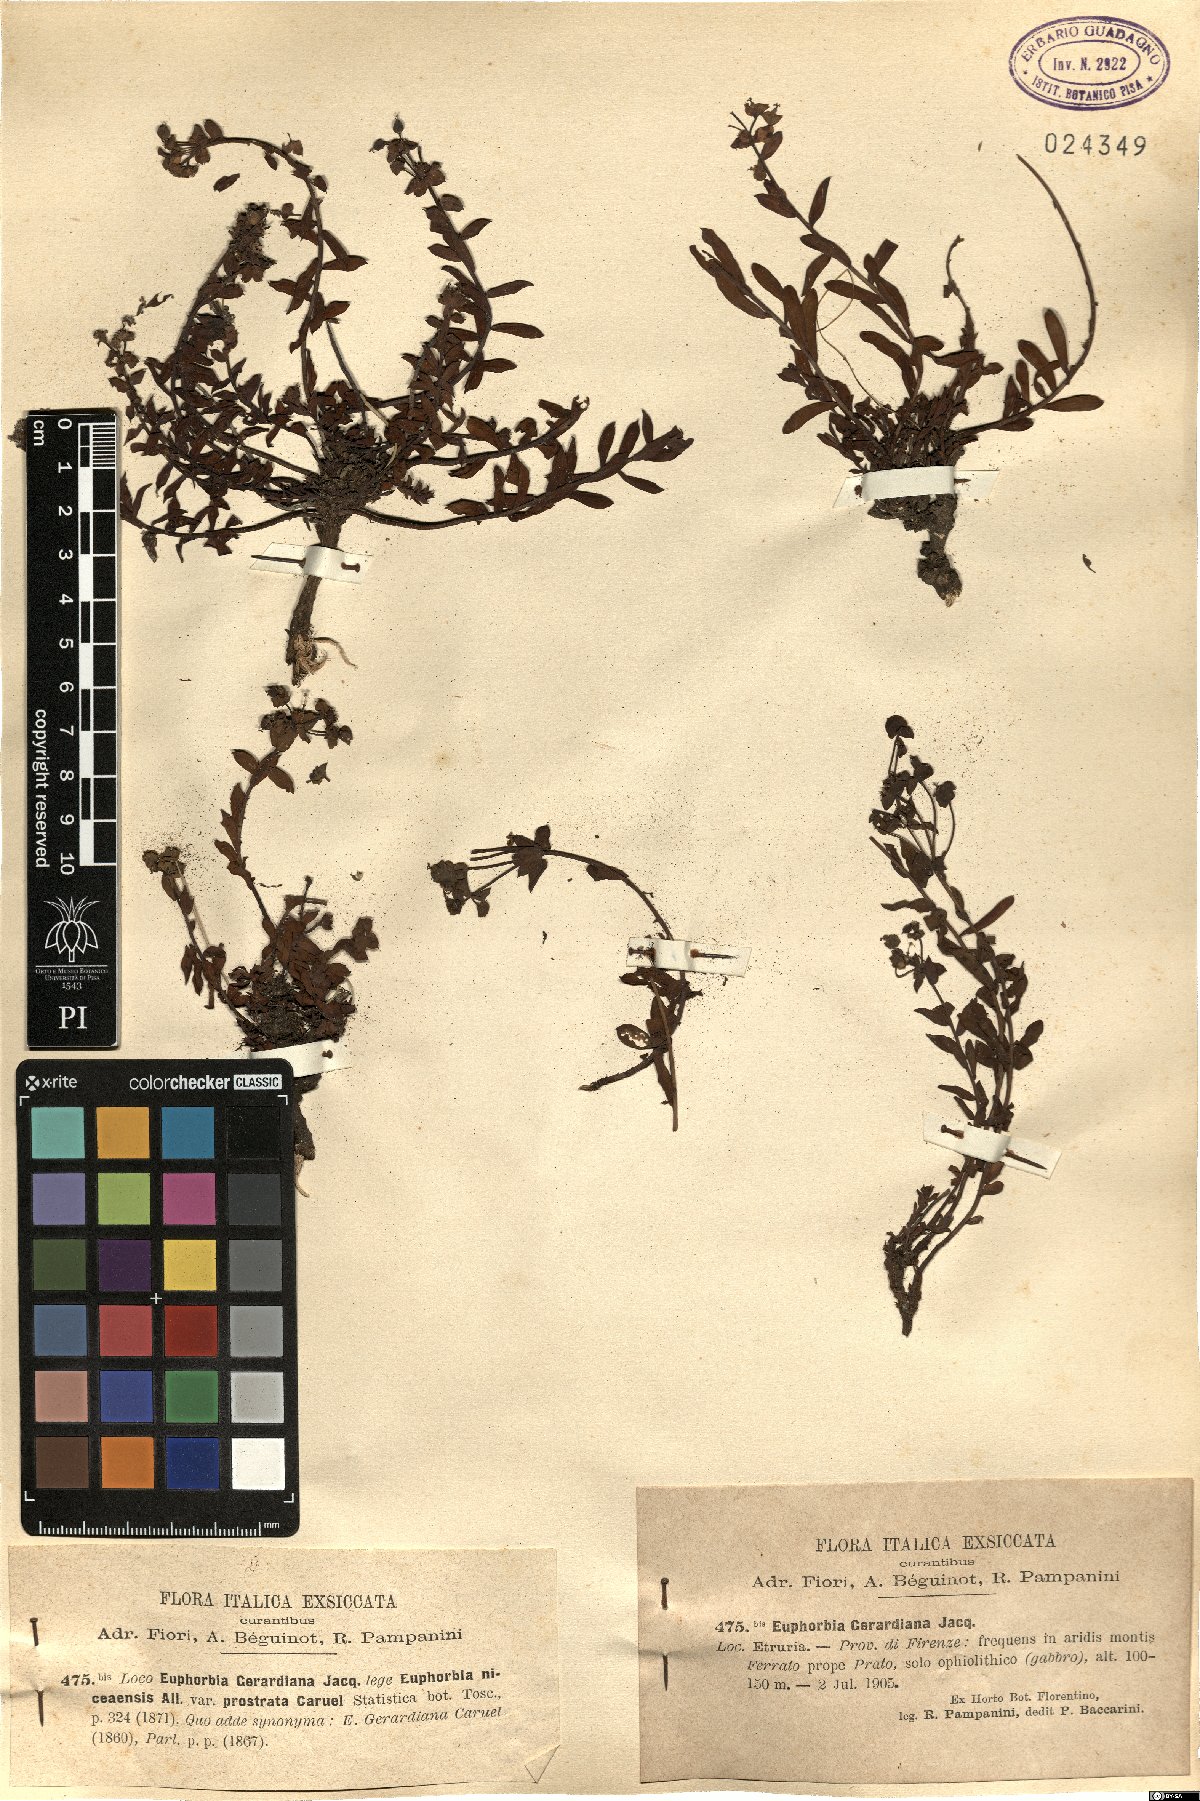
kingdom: Plantae
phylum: Tracheophyta
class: Magnoliopsida
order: Malpighiales
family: Euphorbiaceae
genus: Euphorbia
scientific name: Euphorbia seguieriana
